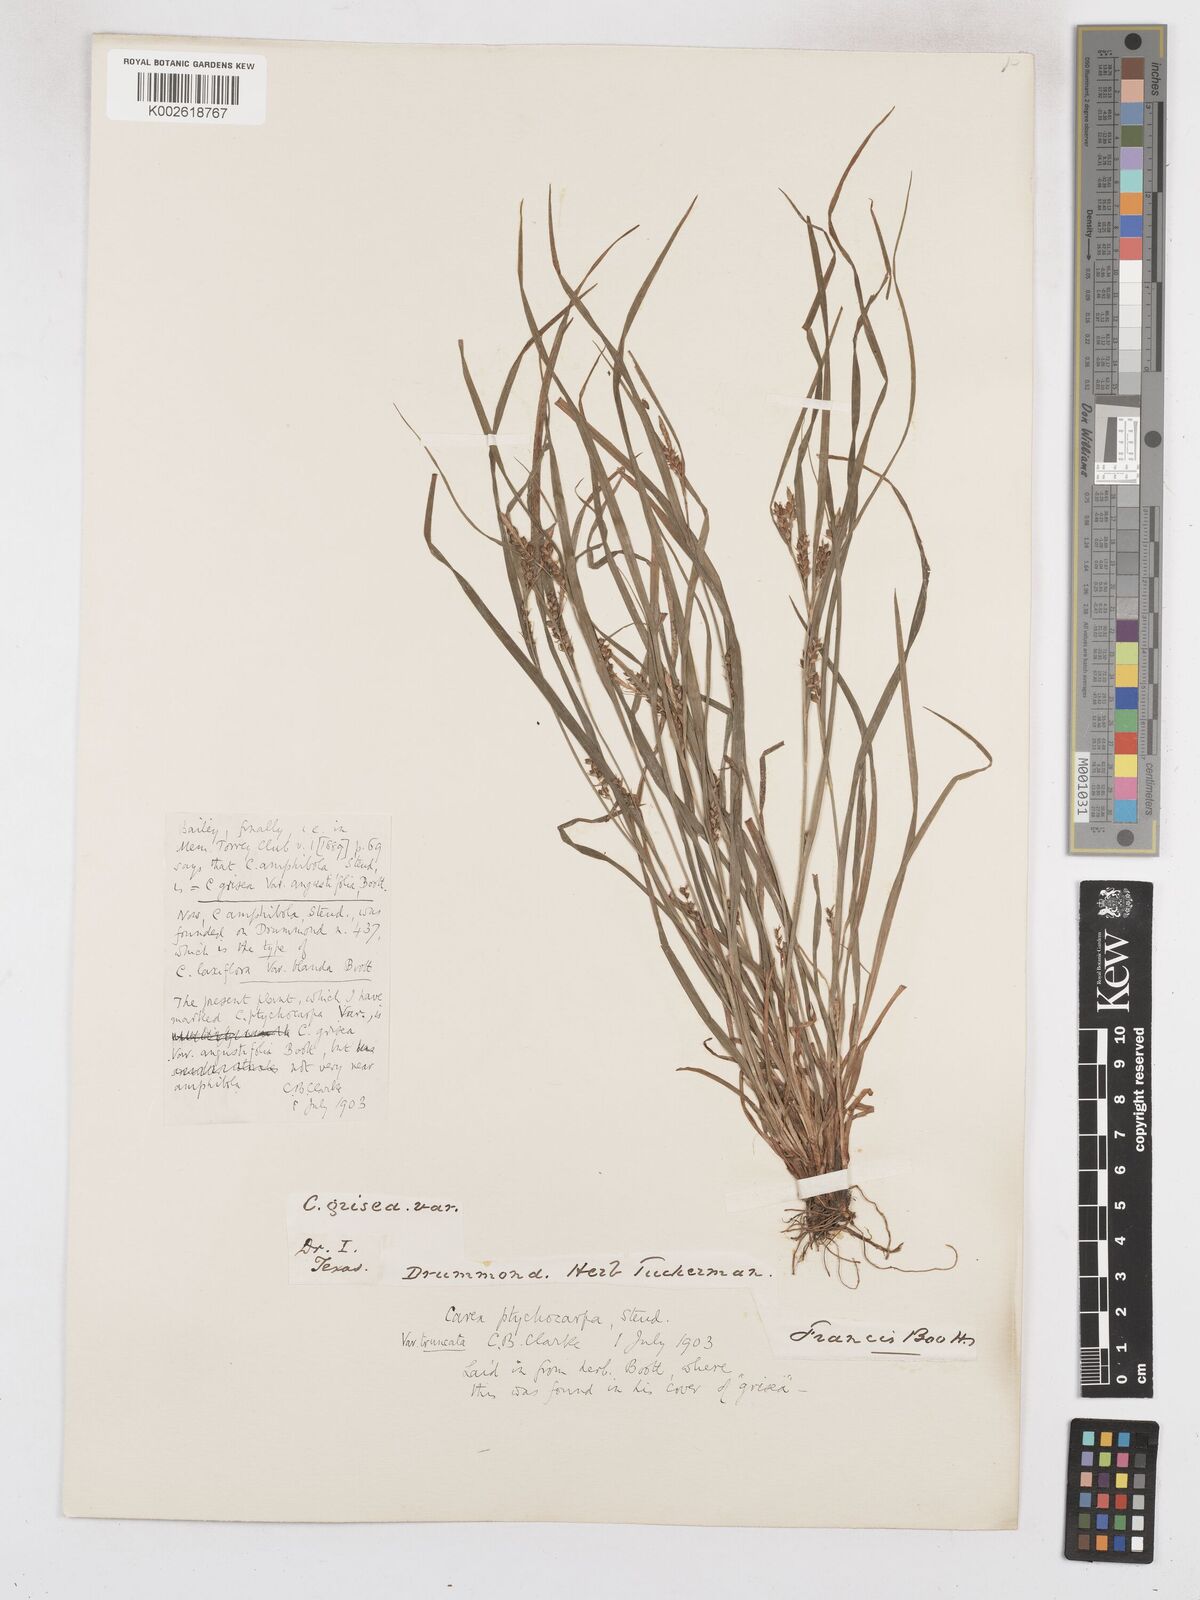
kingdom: Plantae
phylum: Tracheophyta
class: Liliopsida
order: Poales
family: Cyperaceae
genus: Carex
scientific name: Carex abscondita
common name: Thicket sedge
